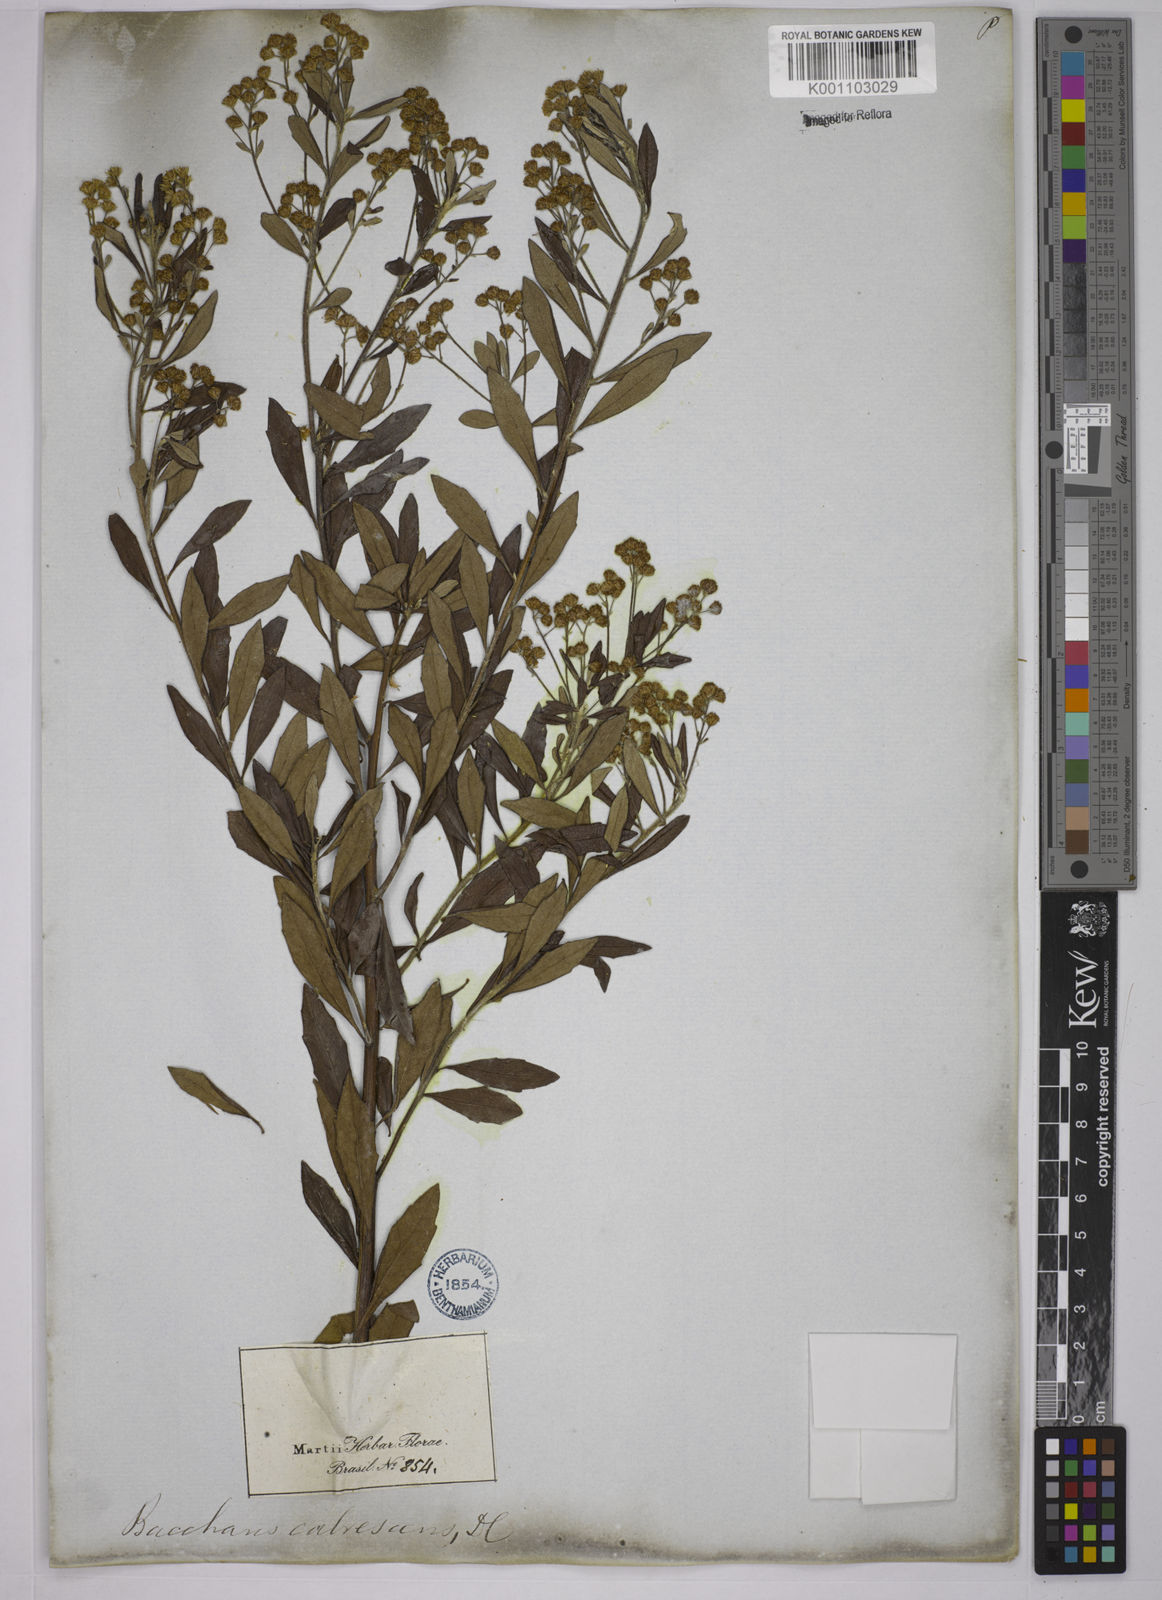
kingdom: Plantae
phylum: Tracheophyta
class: Magnoliopsida
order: Asterales
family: Asteraceae
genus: Baccharis
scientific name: Baccharis calvescens
